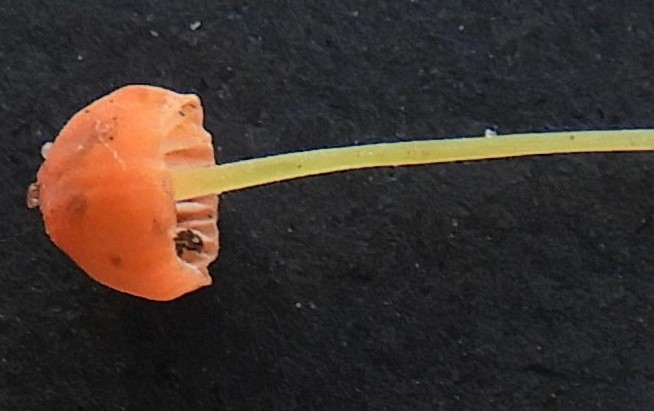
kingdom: Fungi
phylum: Basidiomycota
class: Agaricomycetes
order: Agaricales
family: Mycenaceae
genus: Mycena
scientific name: Mycena acicula
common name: orange huesvamp
